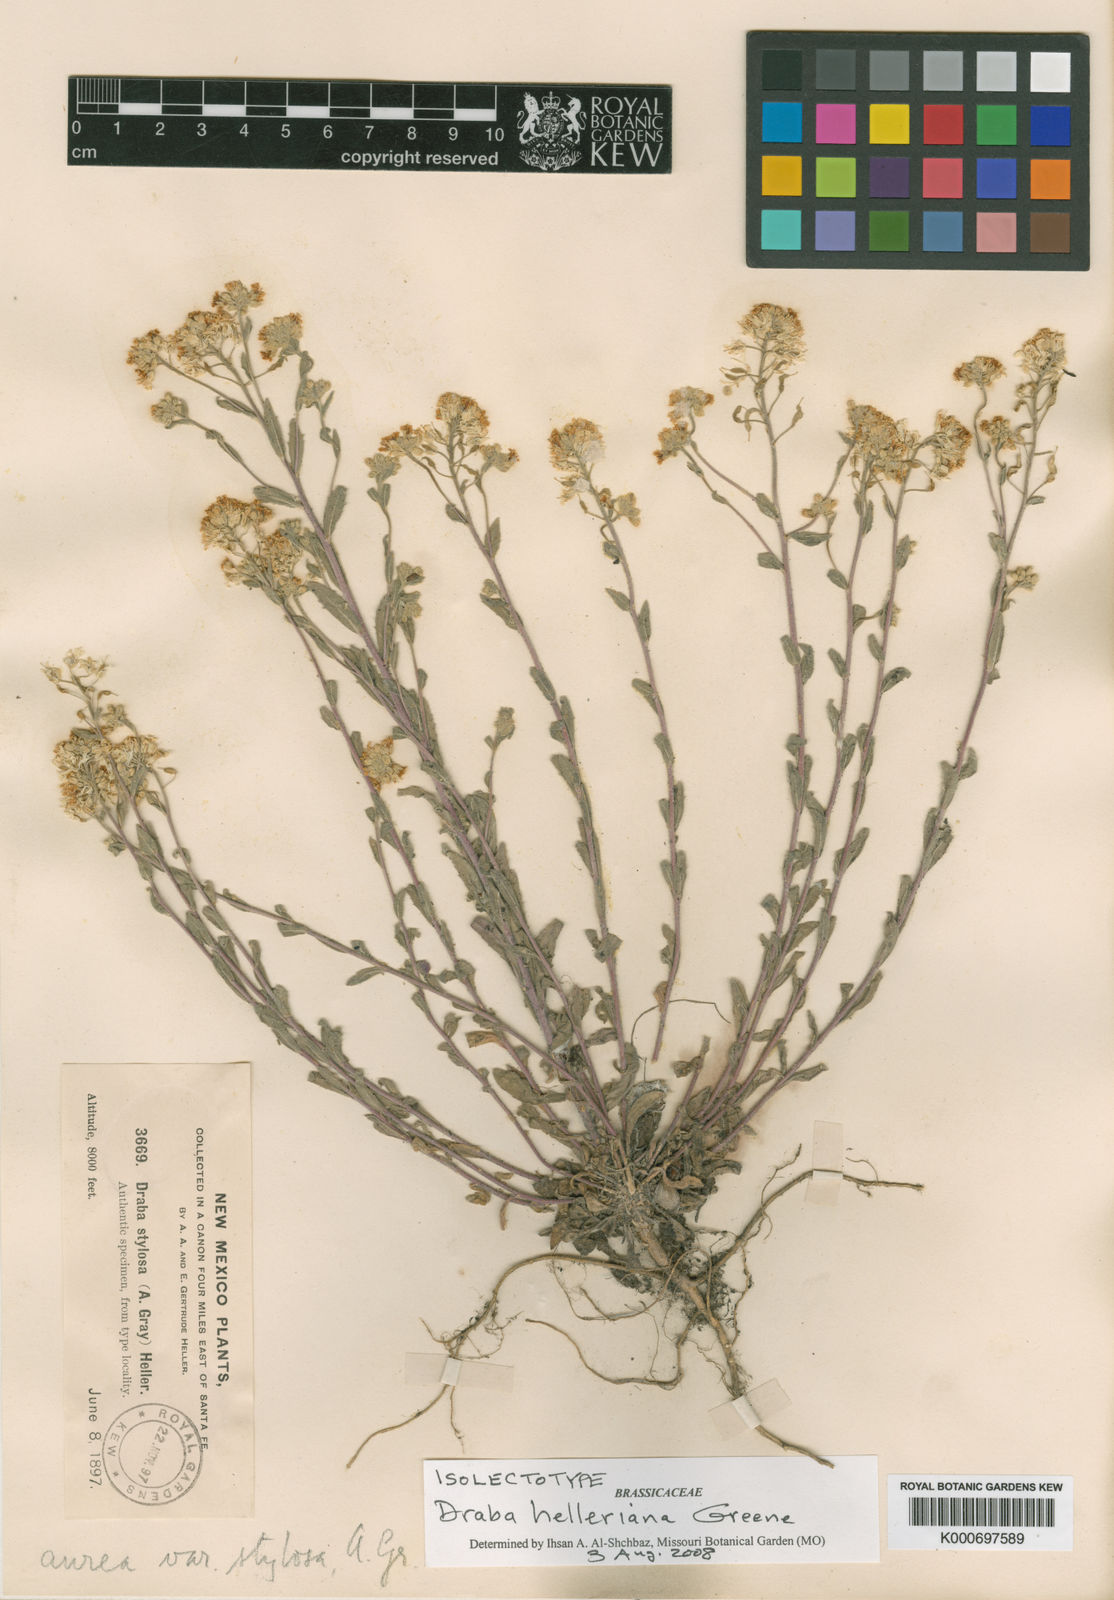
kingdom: Plantae
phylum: Tracheophyta
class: Magnoliopsida
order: Brassicales
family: Brassicaceae
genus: Draba
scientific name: Draba helleriana
